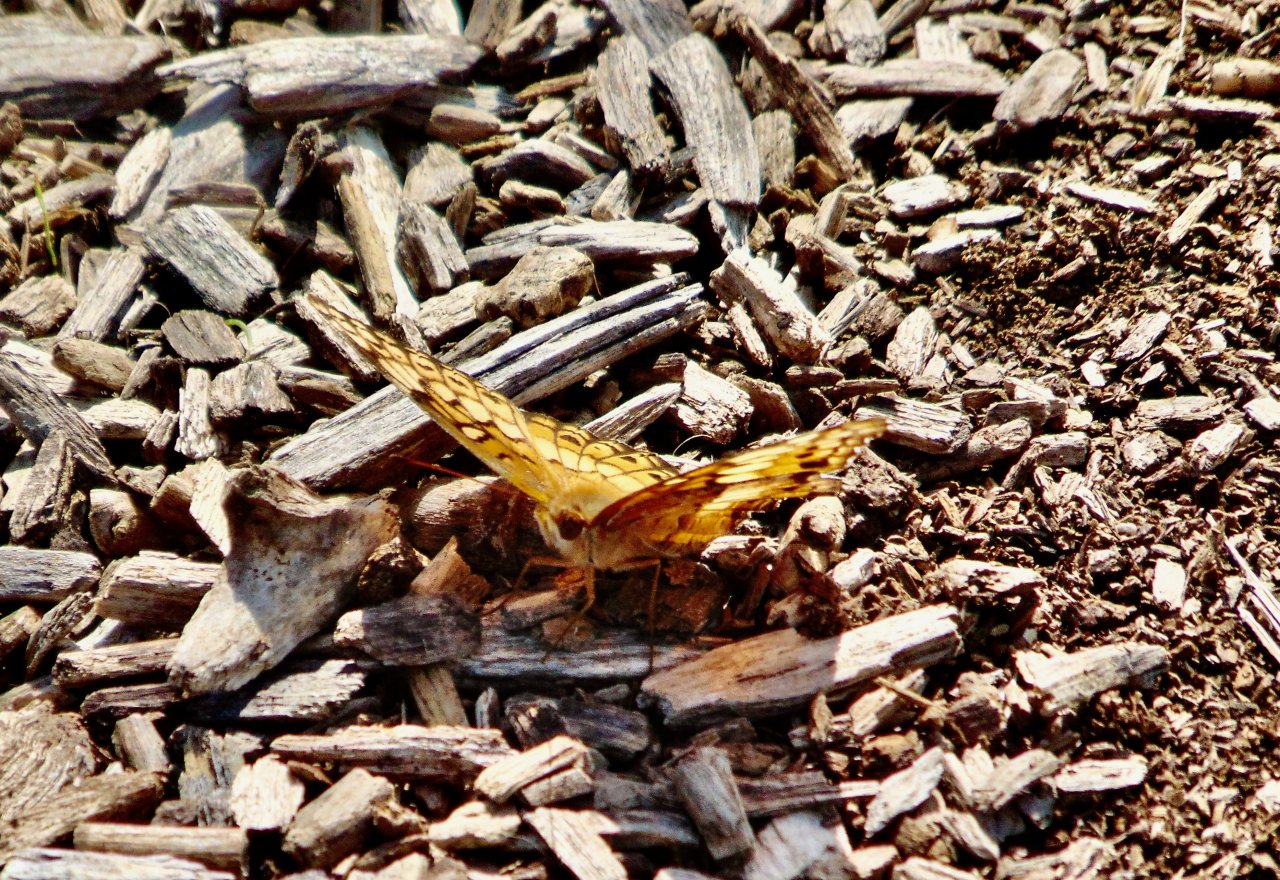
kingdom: Animalia
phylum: Arthropoda
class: Insecta
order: Lepidoptera
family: Nymphalidae
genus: Euptoieta
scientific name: Euptoieta claudia
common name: Variegated Fritillary
